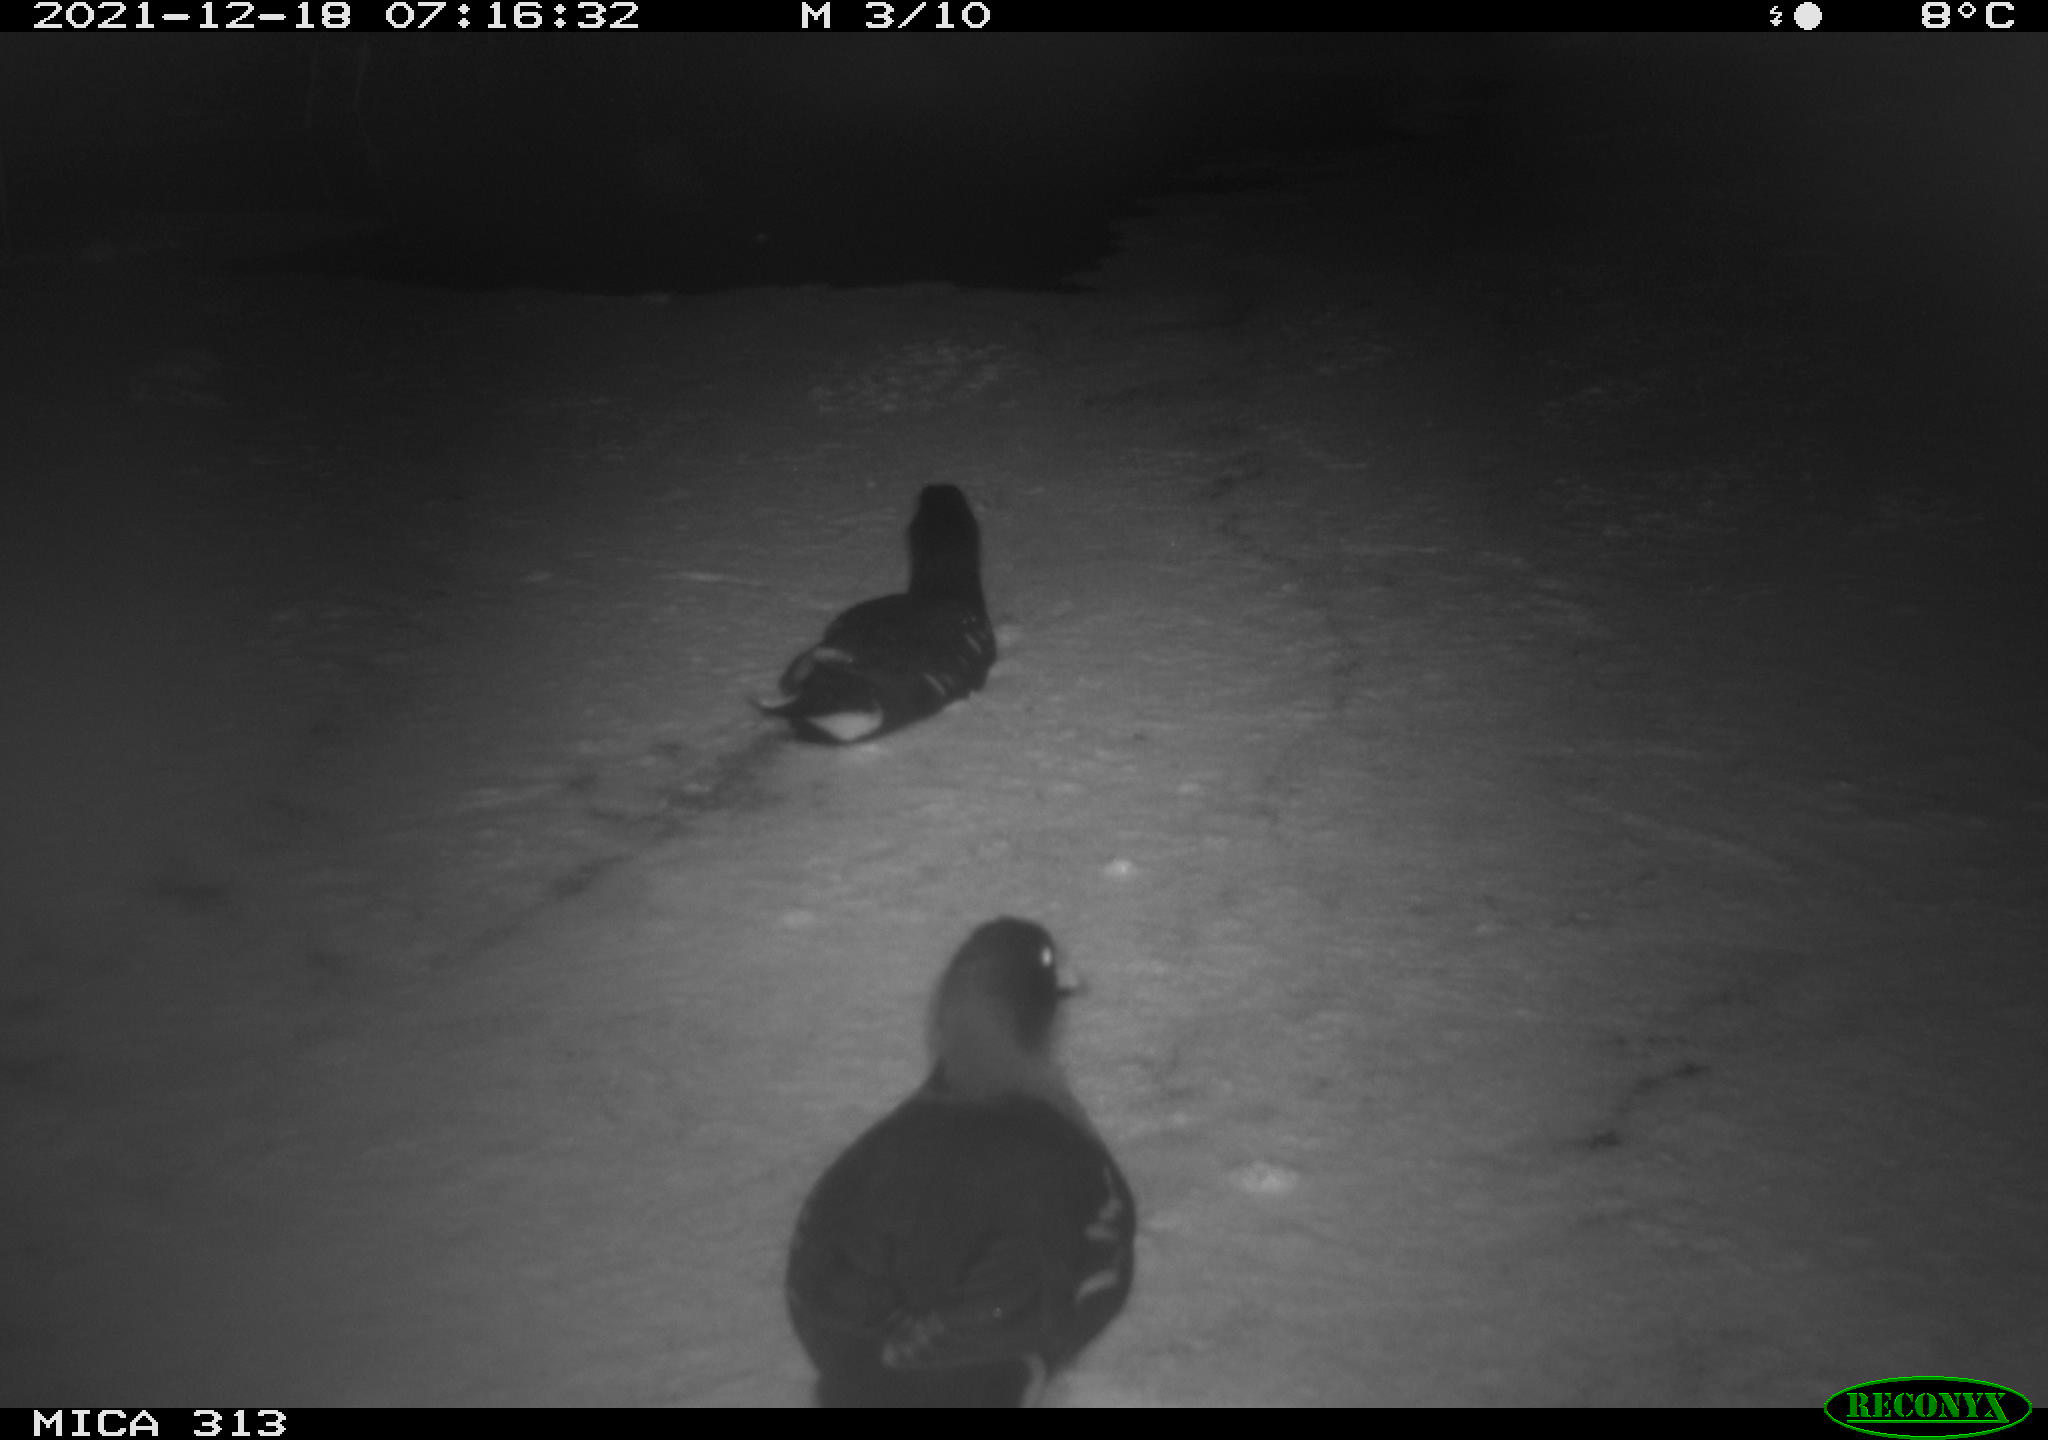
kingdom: Animalia
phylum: Chordata
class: Aves
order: Gruiformes
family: Rallidae
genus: Gallinula
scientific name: Gallinula chloropus
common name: Common moorhen
